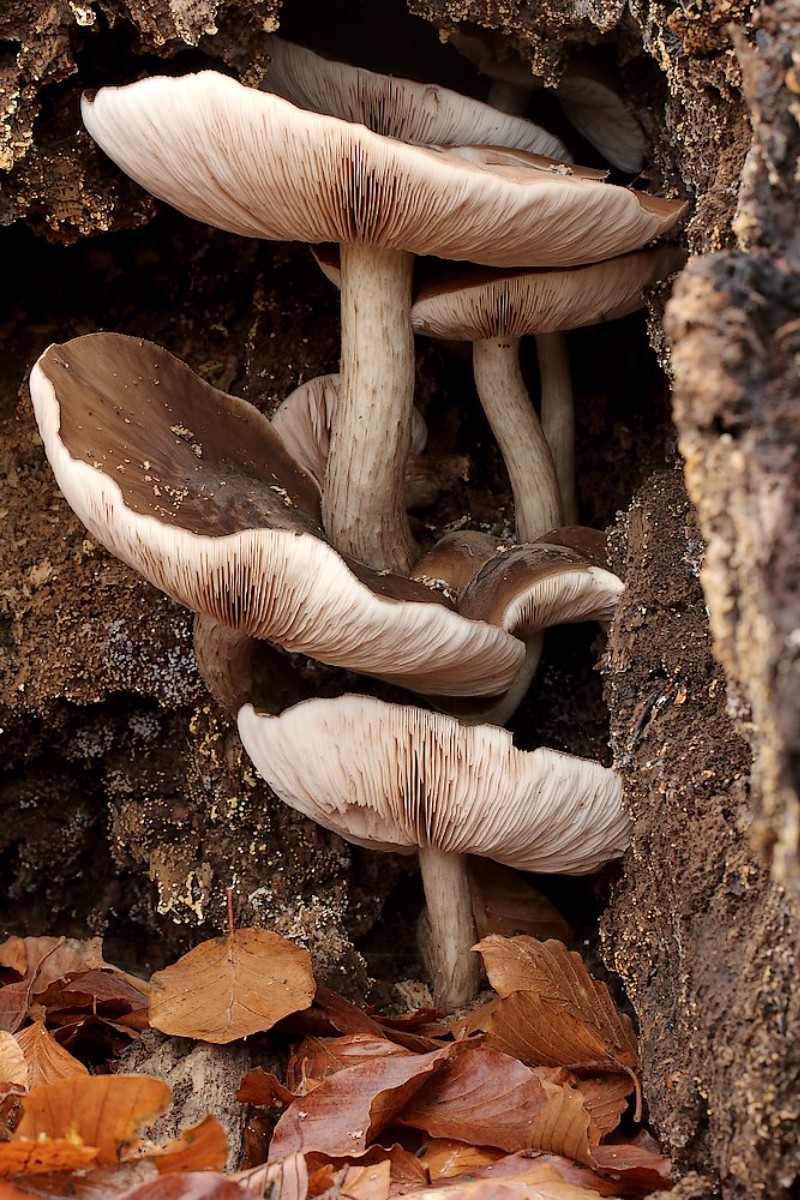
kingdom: Fungi
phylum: Basidiomycota
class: Agaricomycetes
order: Agaricales
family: Pluteaceae
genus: Pluteus
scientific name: Pluteus cervinus
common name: sodfarvet skærmhat
